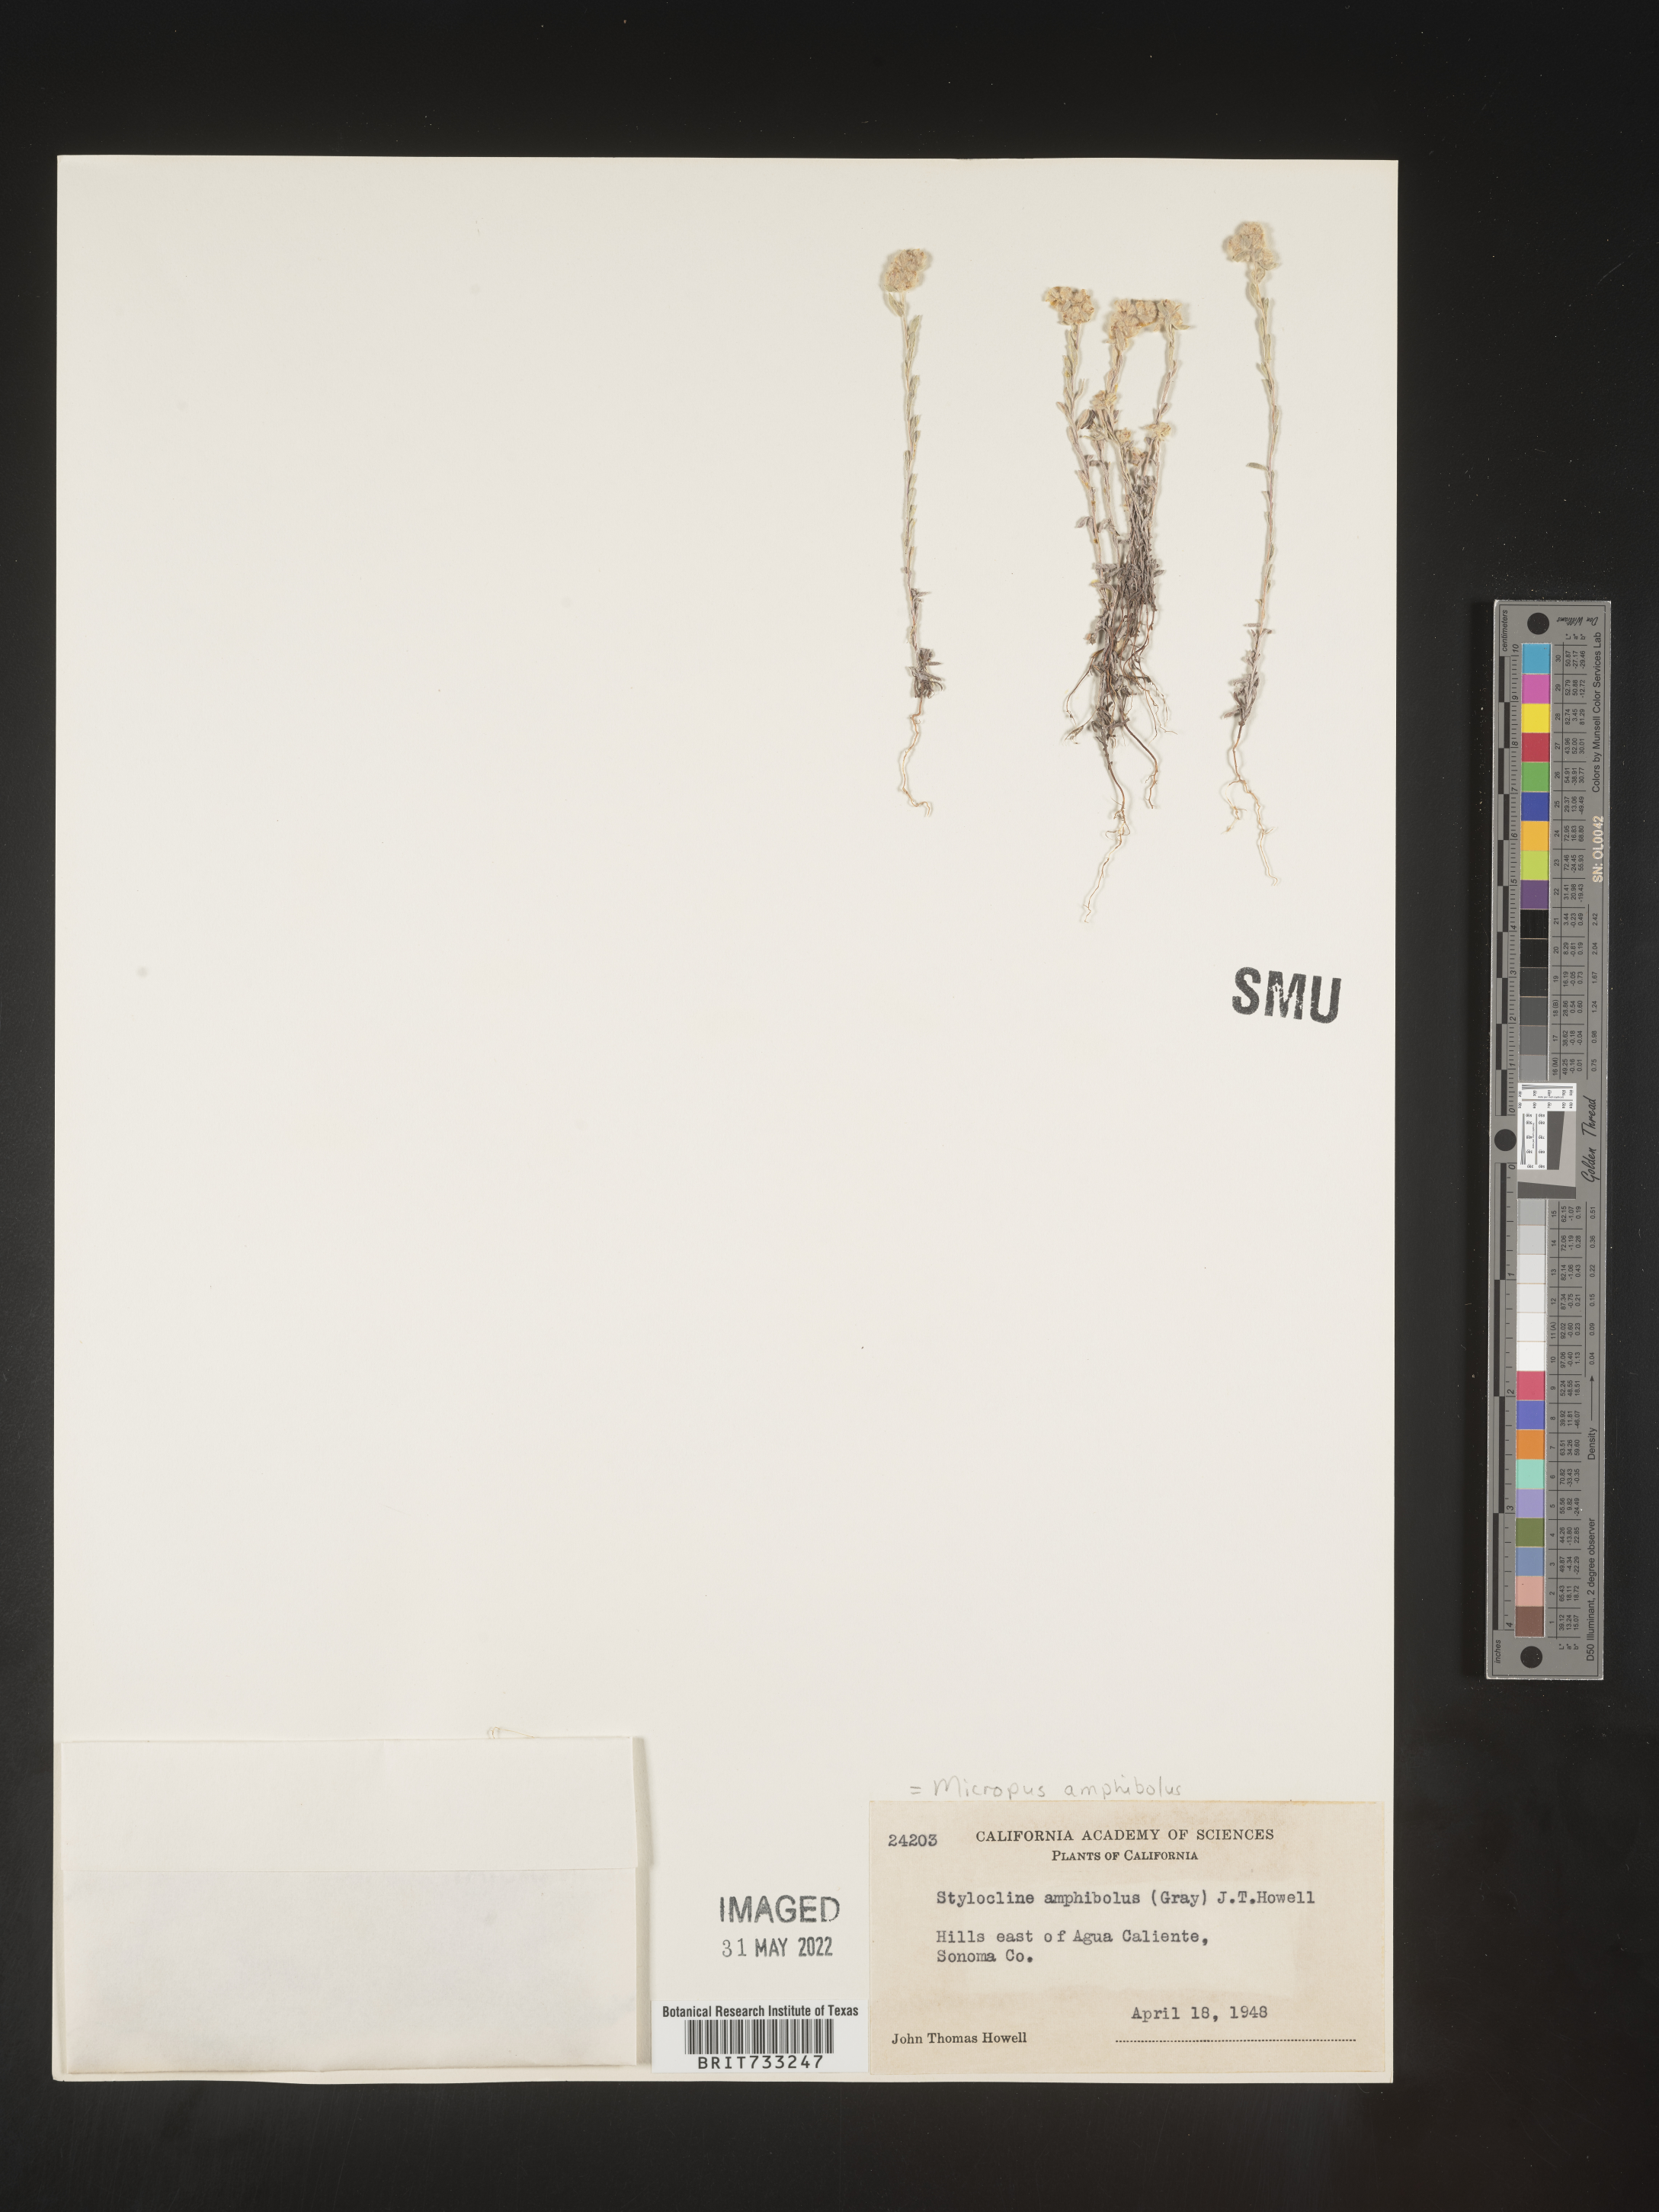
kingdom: Plantae
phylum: Tracheophyta
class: Magnoliopsida
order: Asterales
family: Asteraceae
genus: Micropus
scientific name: Micropus
